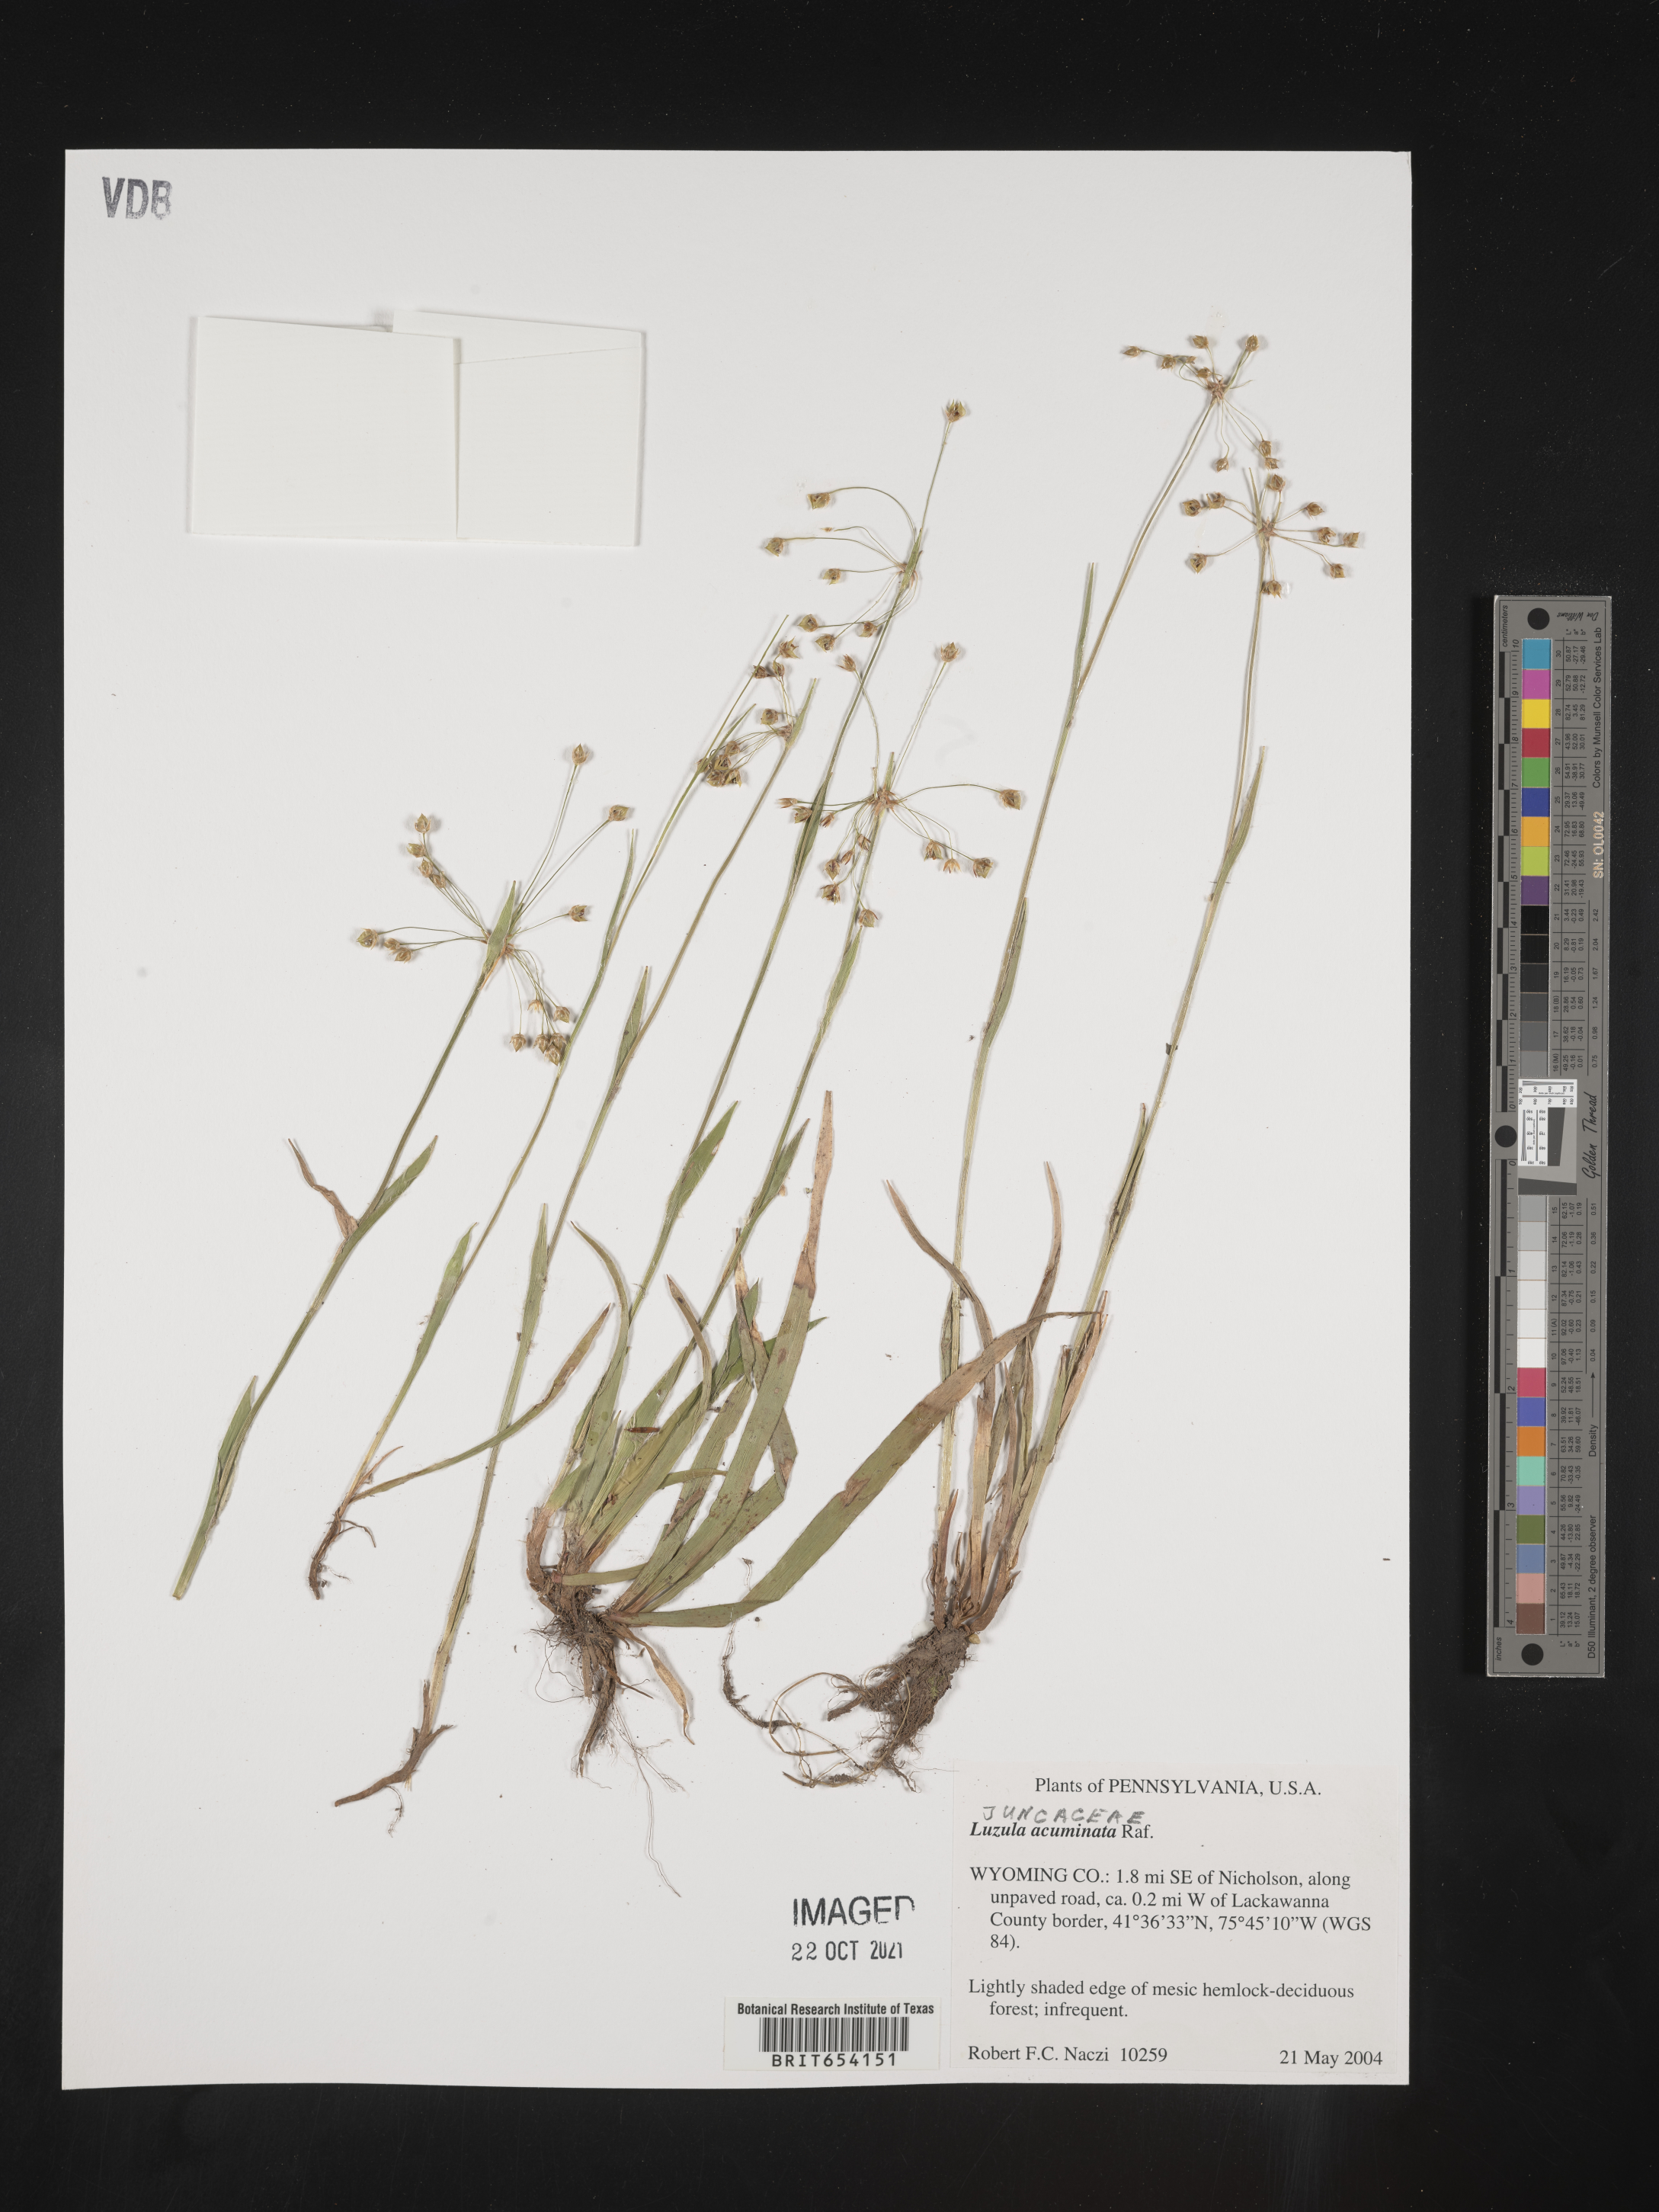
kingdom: Plantae
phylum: Tracheophyta
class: Liliopsida
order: Poales
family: Juncaceae
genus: Luzula
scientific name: Luzula acuminata
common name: Hairy woodrush
